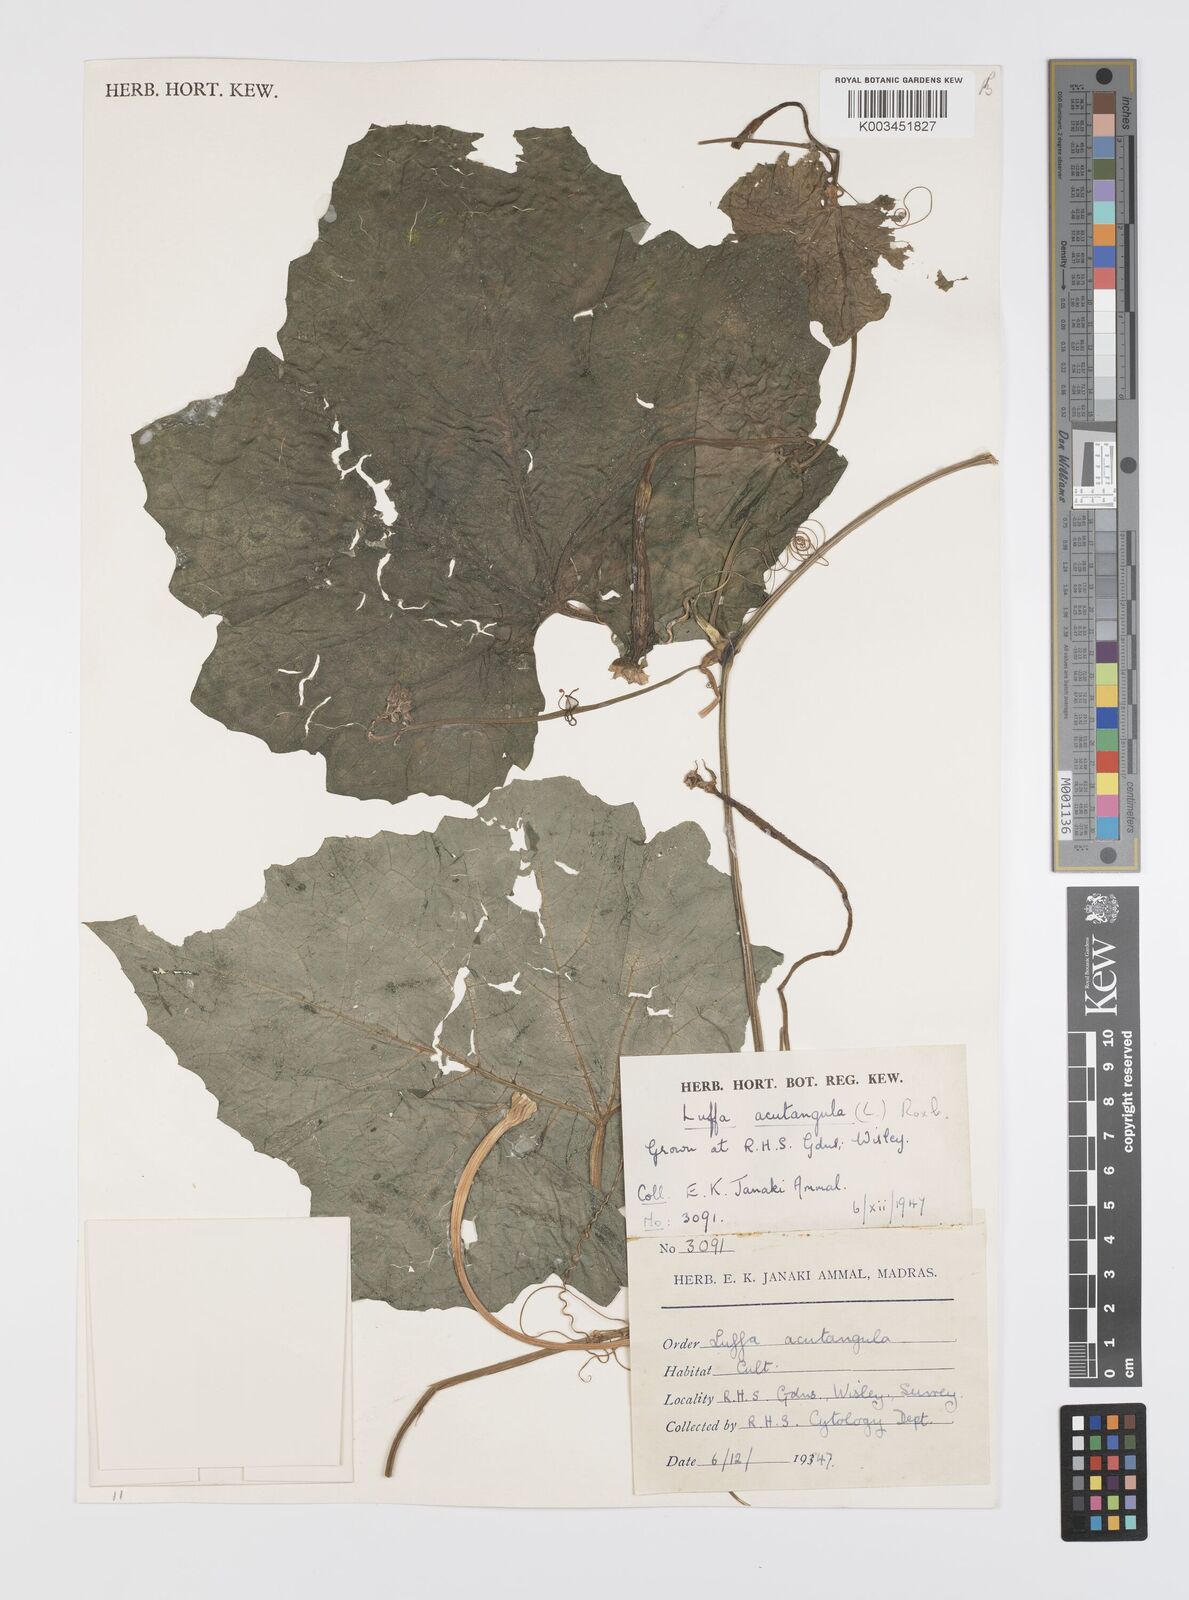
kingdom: Plantae
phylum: Tracheophyta
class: Magnoliopsida
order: Cucurbitales
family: Cucurbitaceae
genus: Luffa
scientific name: Luffa acutangula
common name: Sinkwa towelsponge
